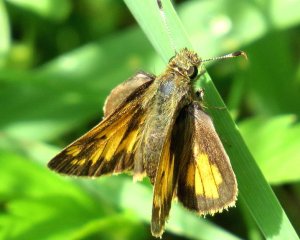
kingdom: Animalia
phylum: Arthropoda
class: Insecta
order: Lepidoptera
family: Hesperiidae
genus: Lon
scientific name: Lon hobomok
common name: Hobomok Skipper
